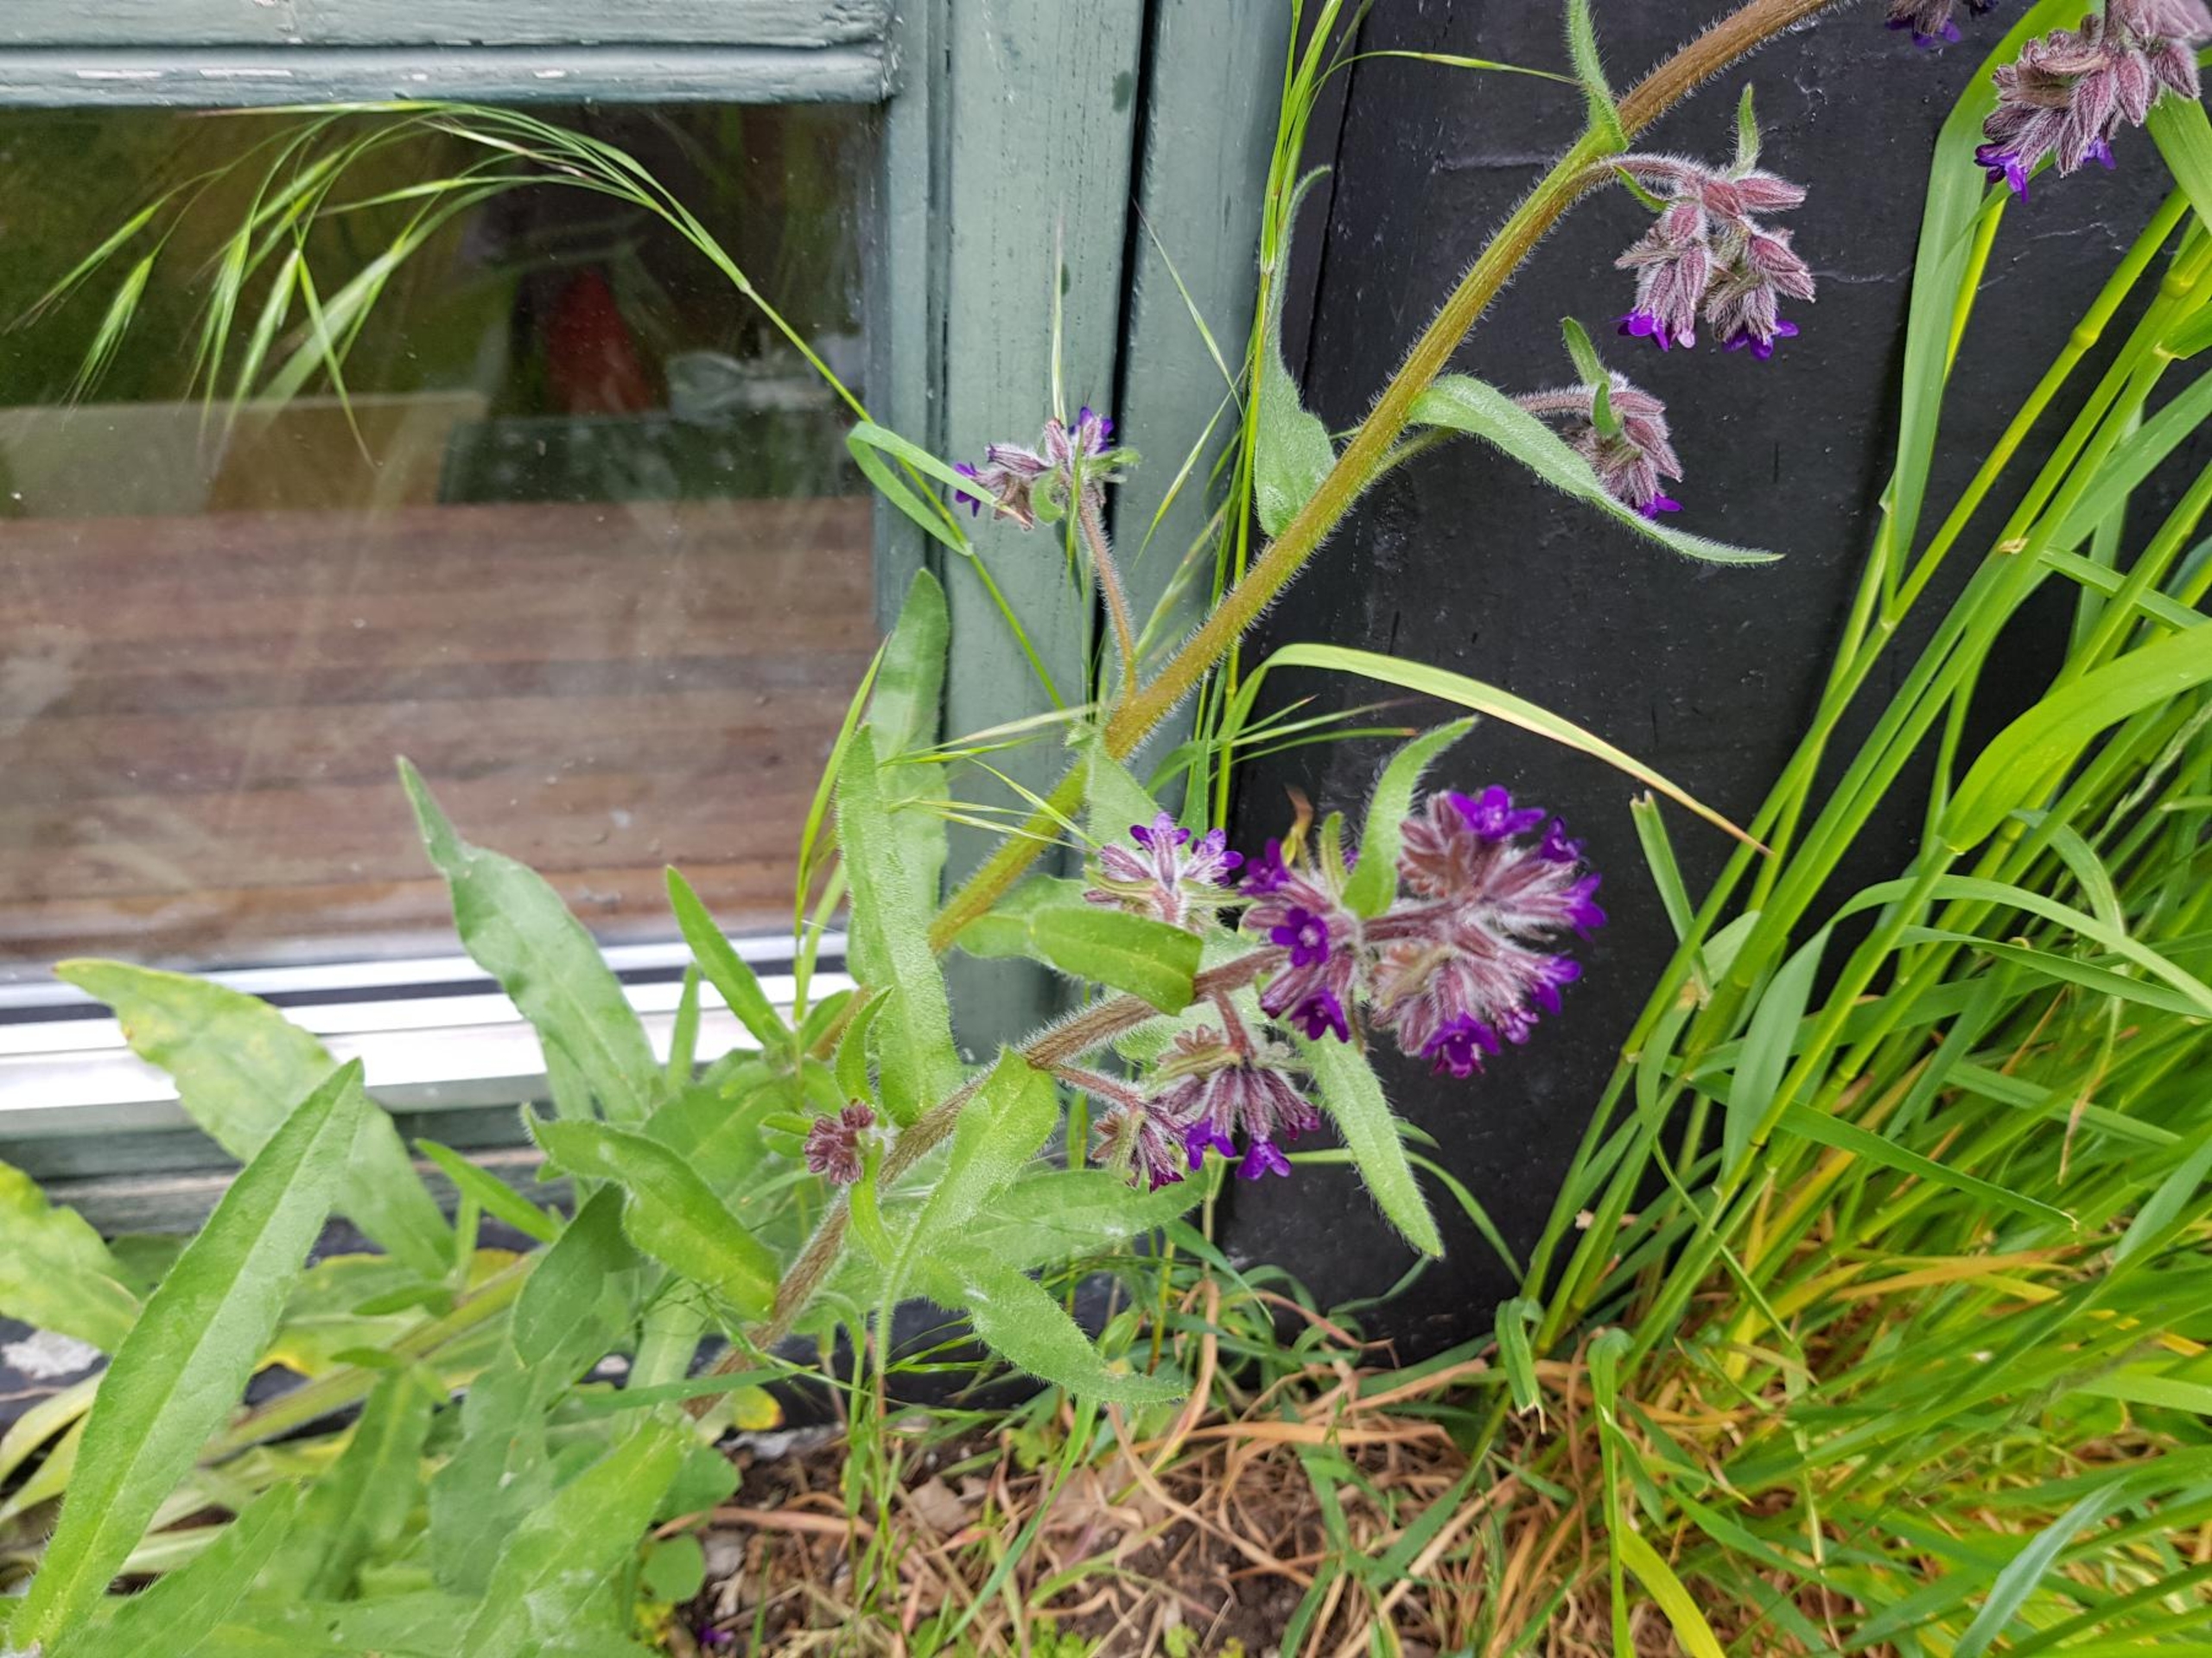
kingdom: Plantae
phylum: Tracheophyta
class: Magnoliopsida
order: Boraginales
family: Boraginaceae
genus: Anchusa
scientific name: Anchusa officinalis
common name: Læge-oksetunge
